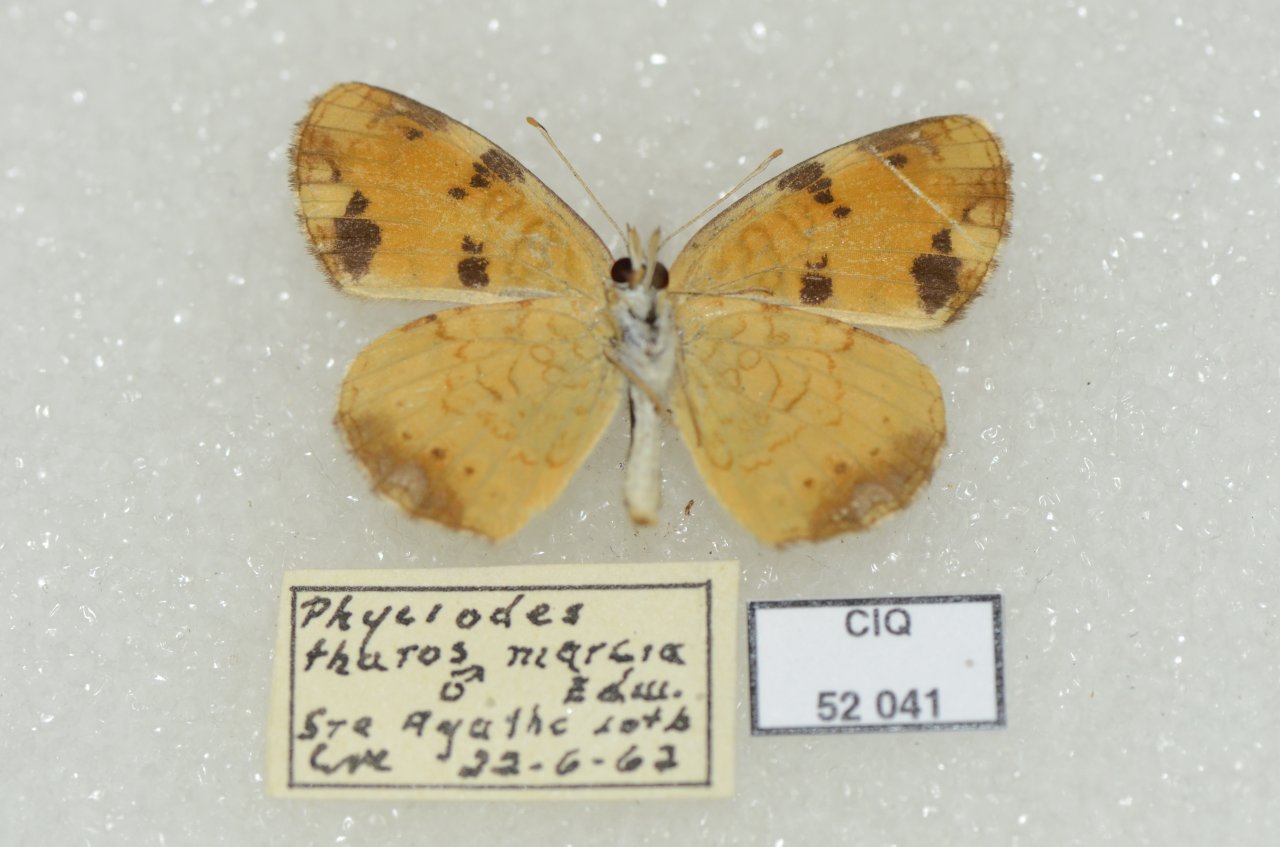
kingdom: Animalia
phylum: Arthropoda
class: Insecta
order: Lepidoptera
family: Nymphalidae
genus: Phyciodes
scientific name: Phyciodes tharos
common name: Northern Crescent
